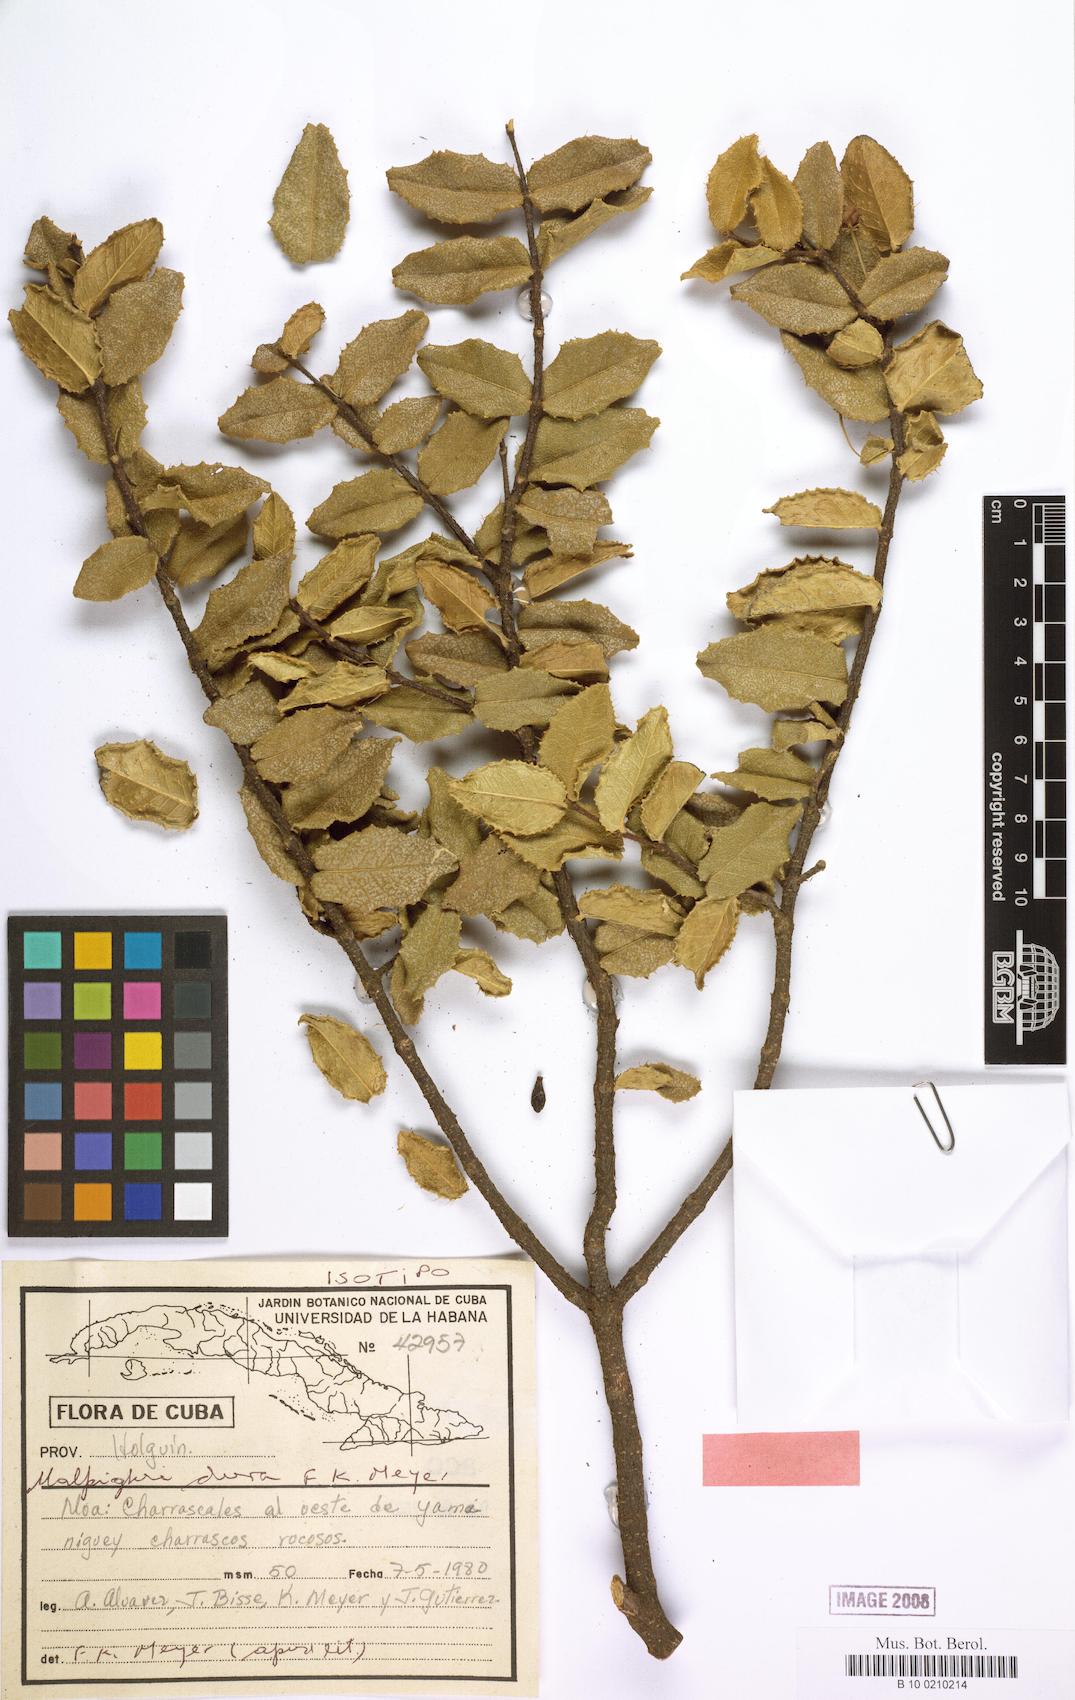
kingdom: Plantae
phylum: Tracheophyta
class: Magnoliopsida
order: Malpighiales
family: Malpighiaceae
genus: Malpighia
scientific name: Malpighia cnide
